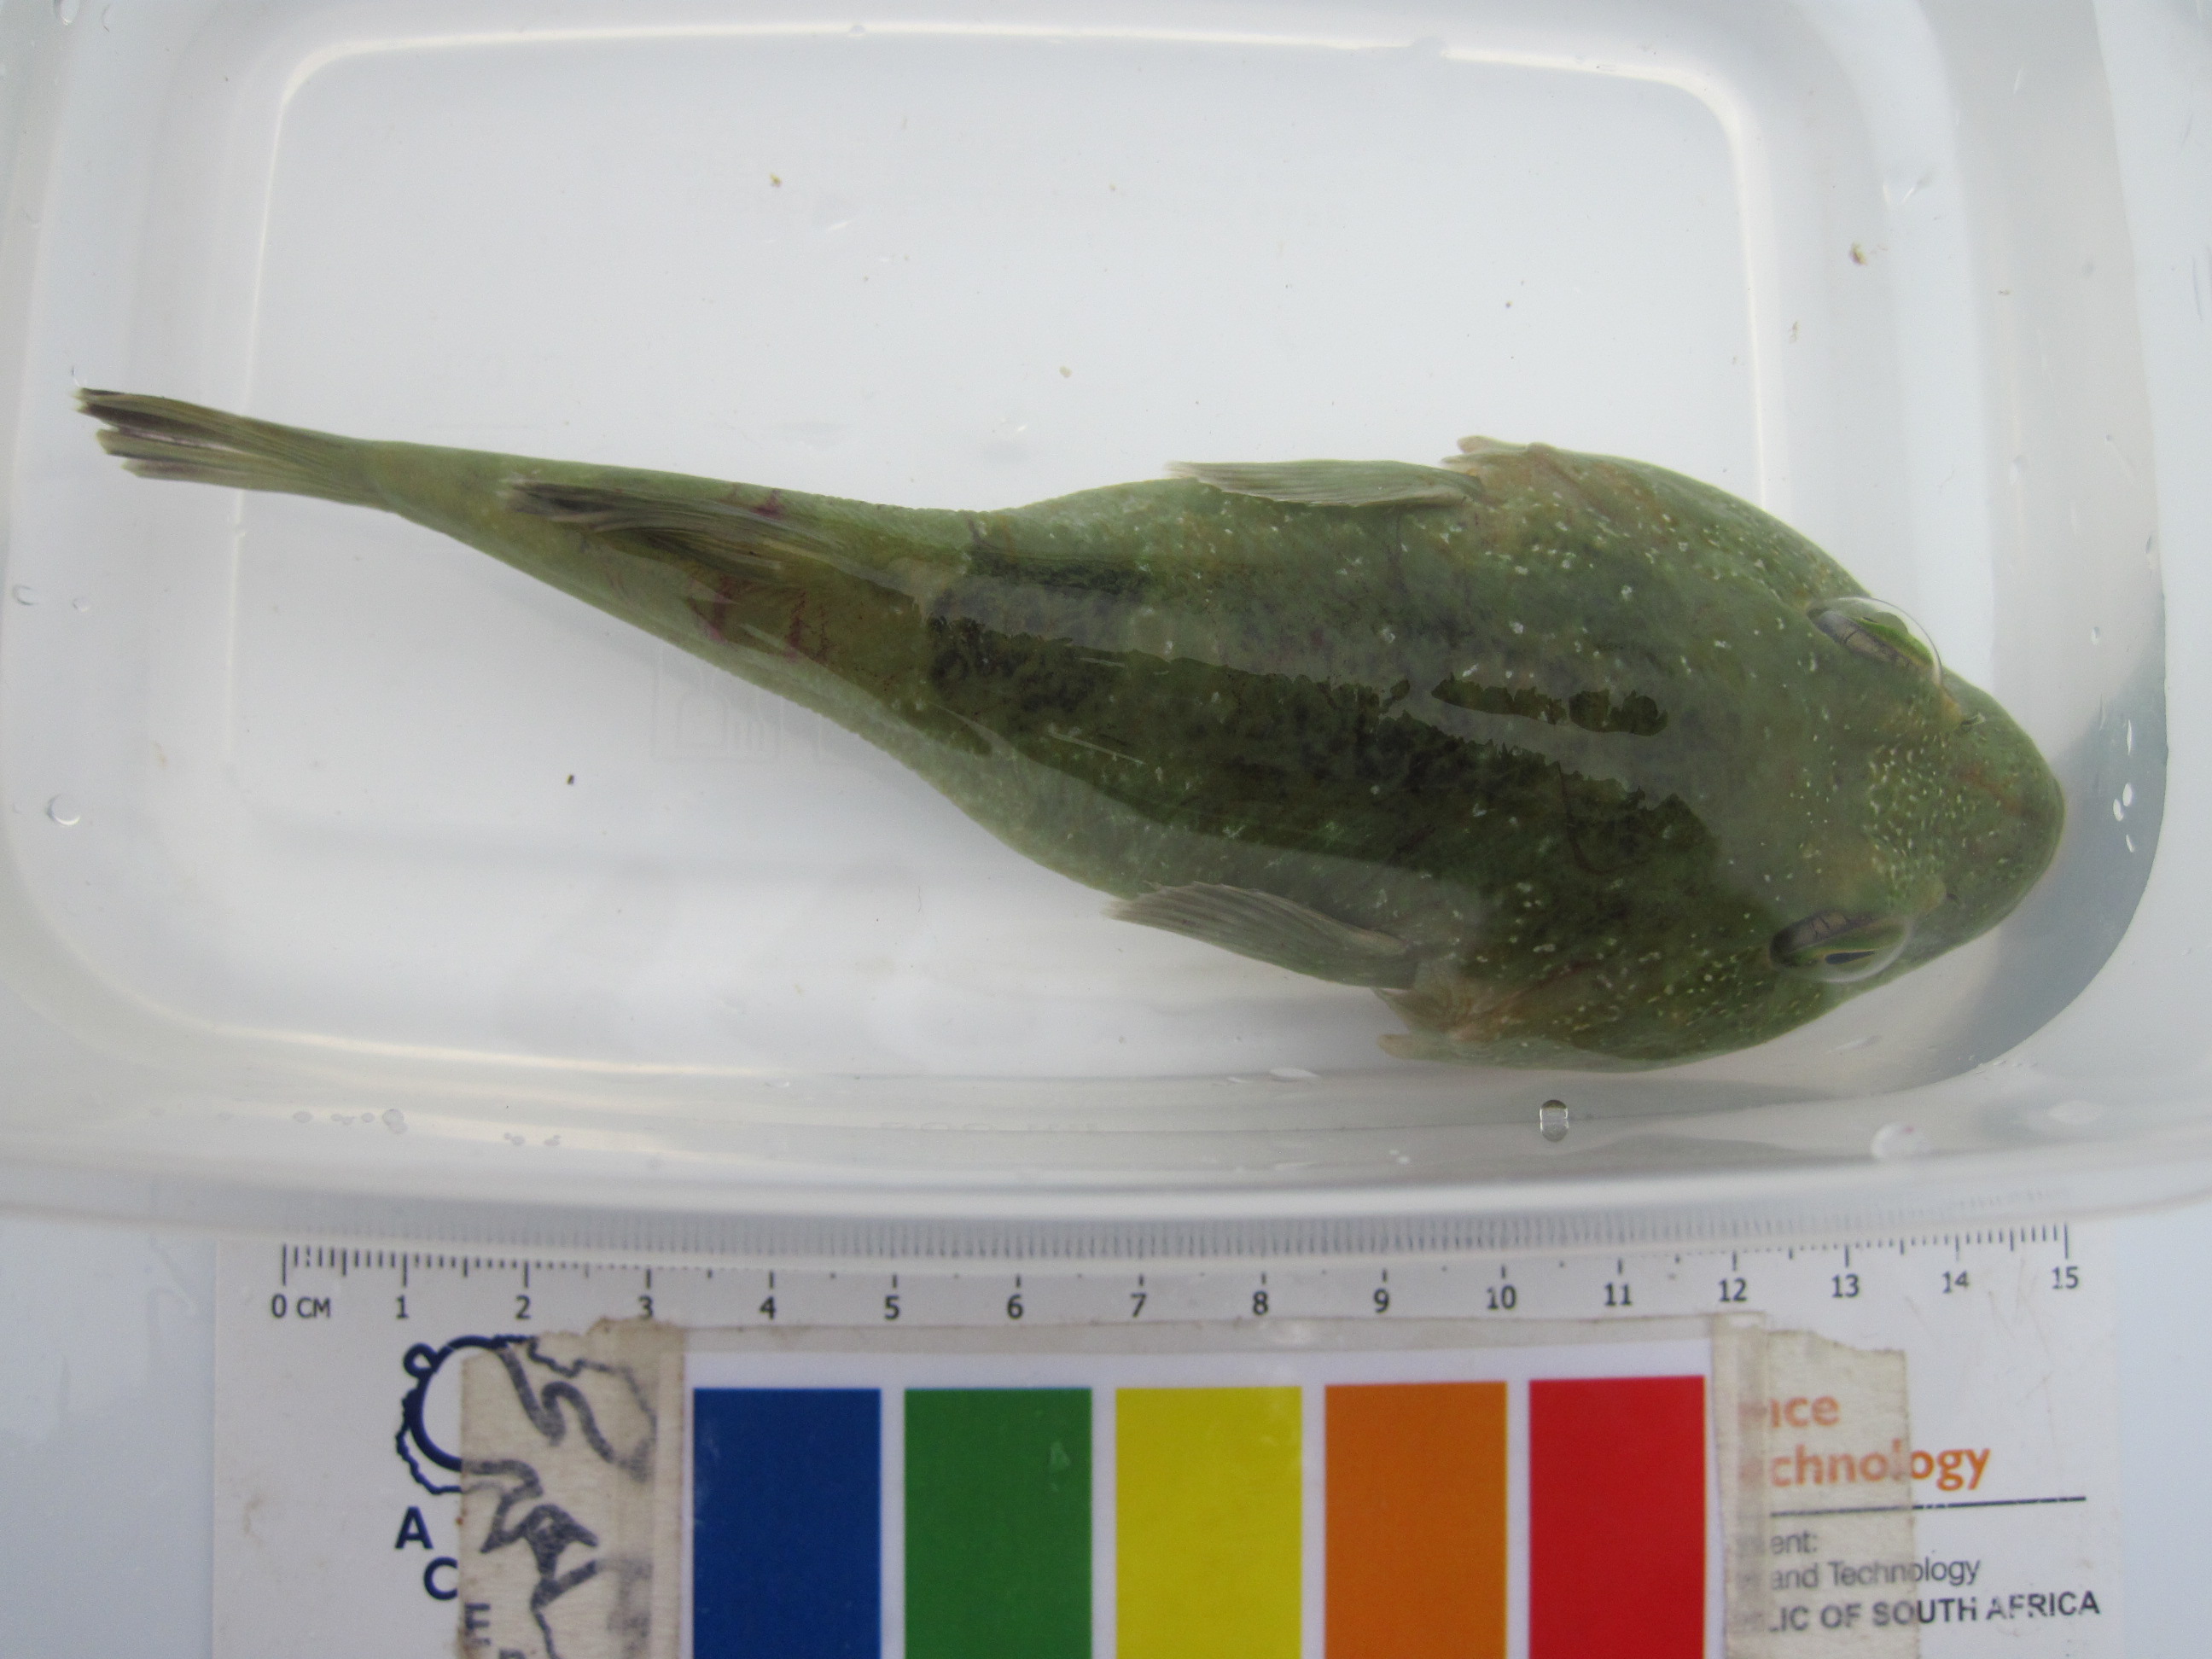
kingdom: Animalia
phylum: Chordata
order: Gobiesociformes
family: Gobiesocidae
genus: Chorisochismus
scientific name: Chorisochismus dentex
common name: Rocksucker
